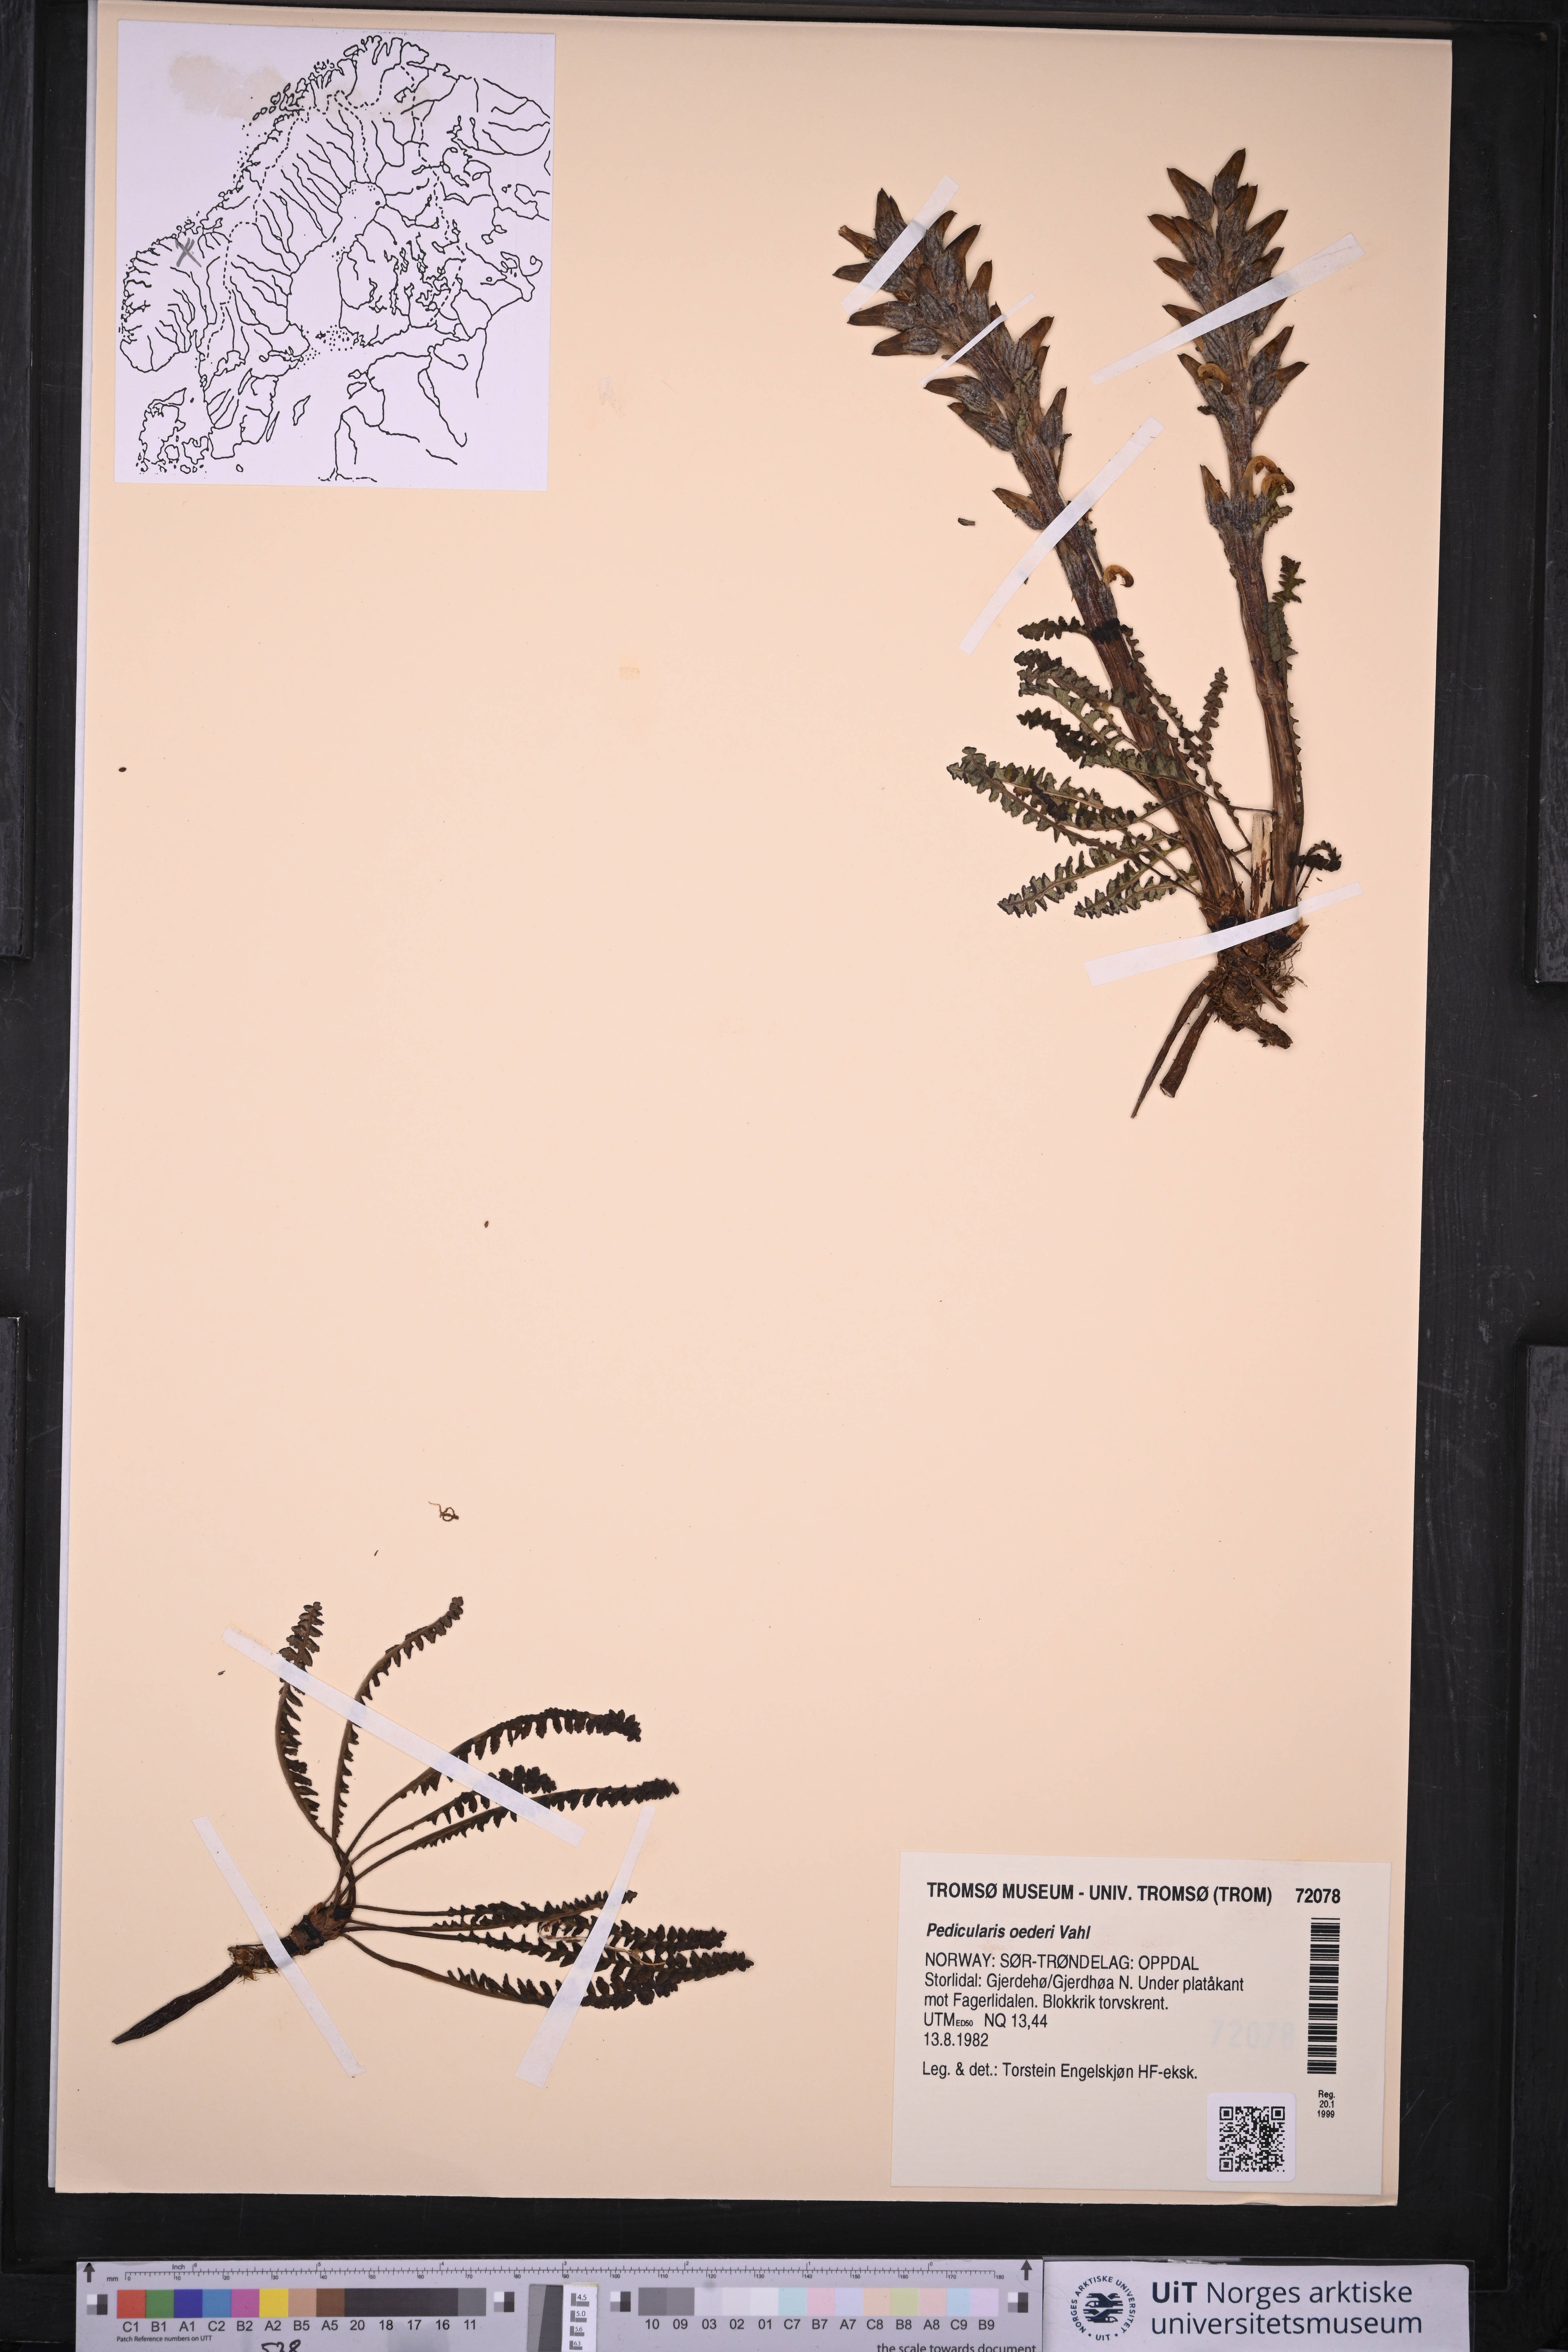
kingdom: Plantae
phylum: Tracheophyta
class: Magnoliopsida
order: Lamiales
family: Orobanchaceae
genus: Pedicularis
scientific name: Pedicularis oederi
